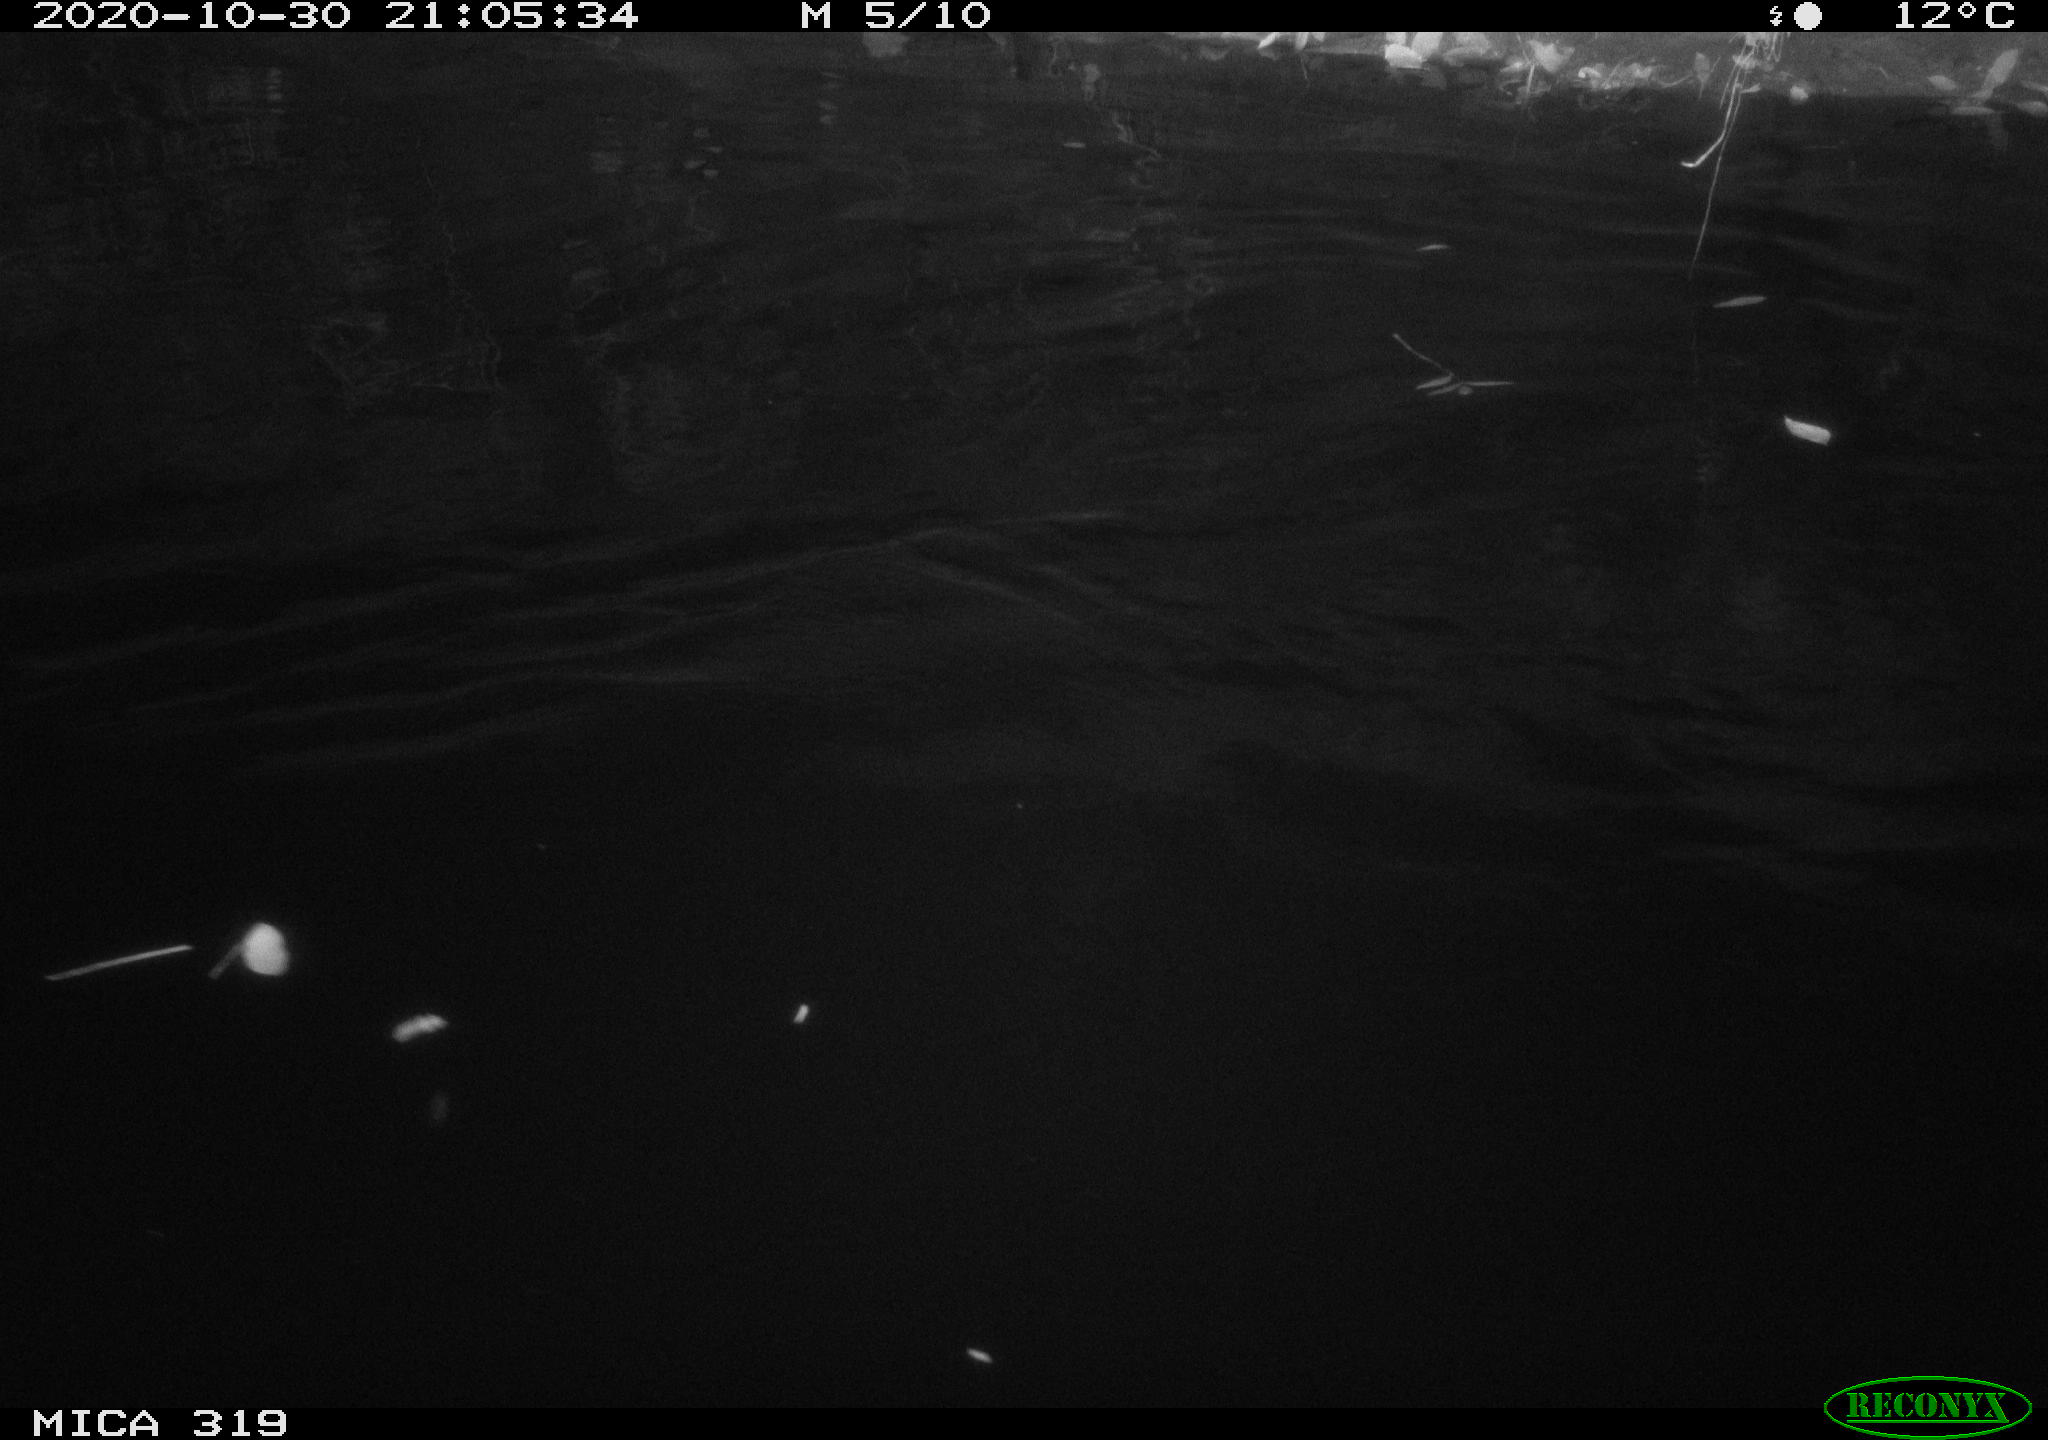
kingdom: Animalia
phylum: Chordata
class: Aves
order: Anseriformes
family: Anatidae
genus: Anas
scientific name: Anas platyrhynchos
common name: Mallard
